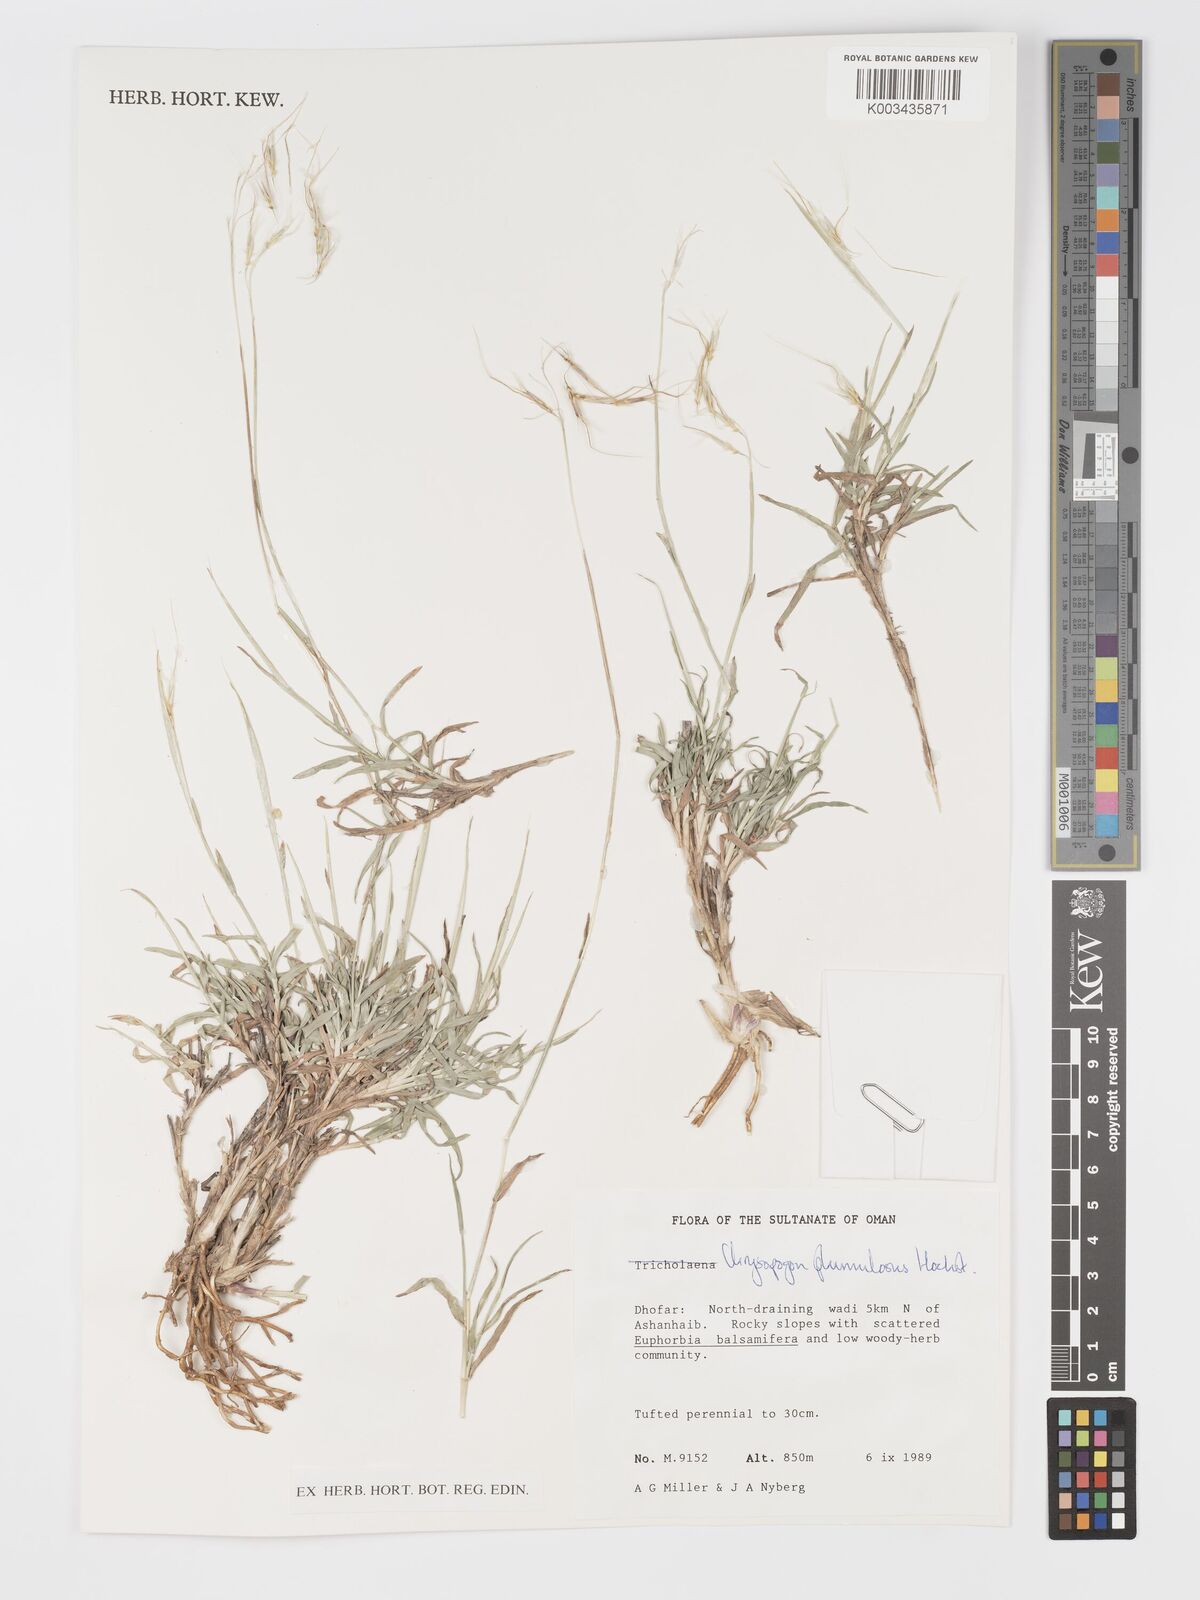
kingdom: Plantae
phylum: Tracheophyta
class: Liliopsida
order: Poales
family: Poaceae
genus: Chrysopogon
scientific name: Chrysopogon plumulosus
